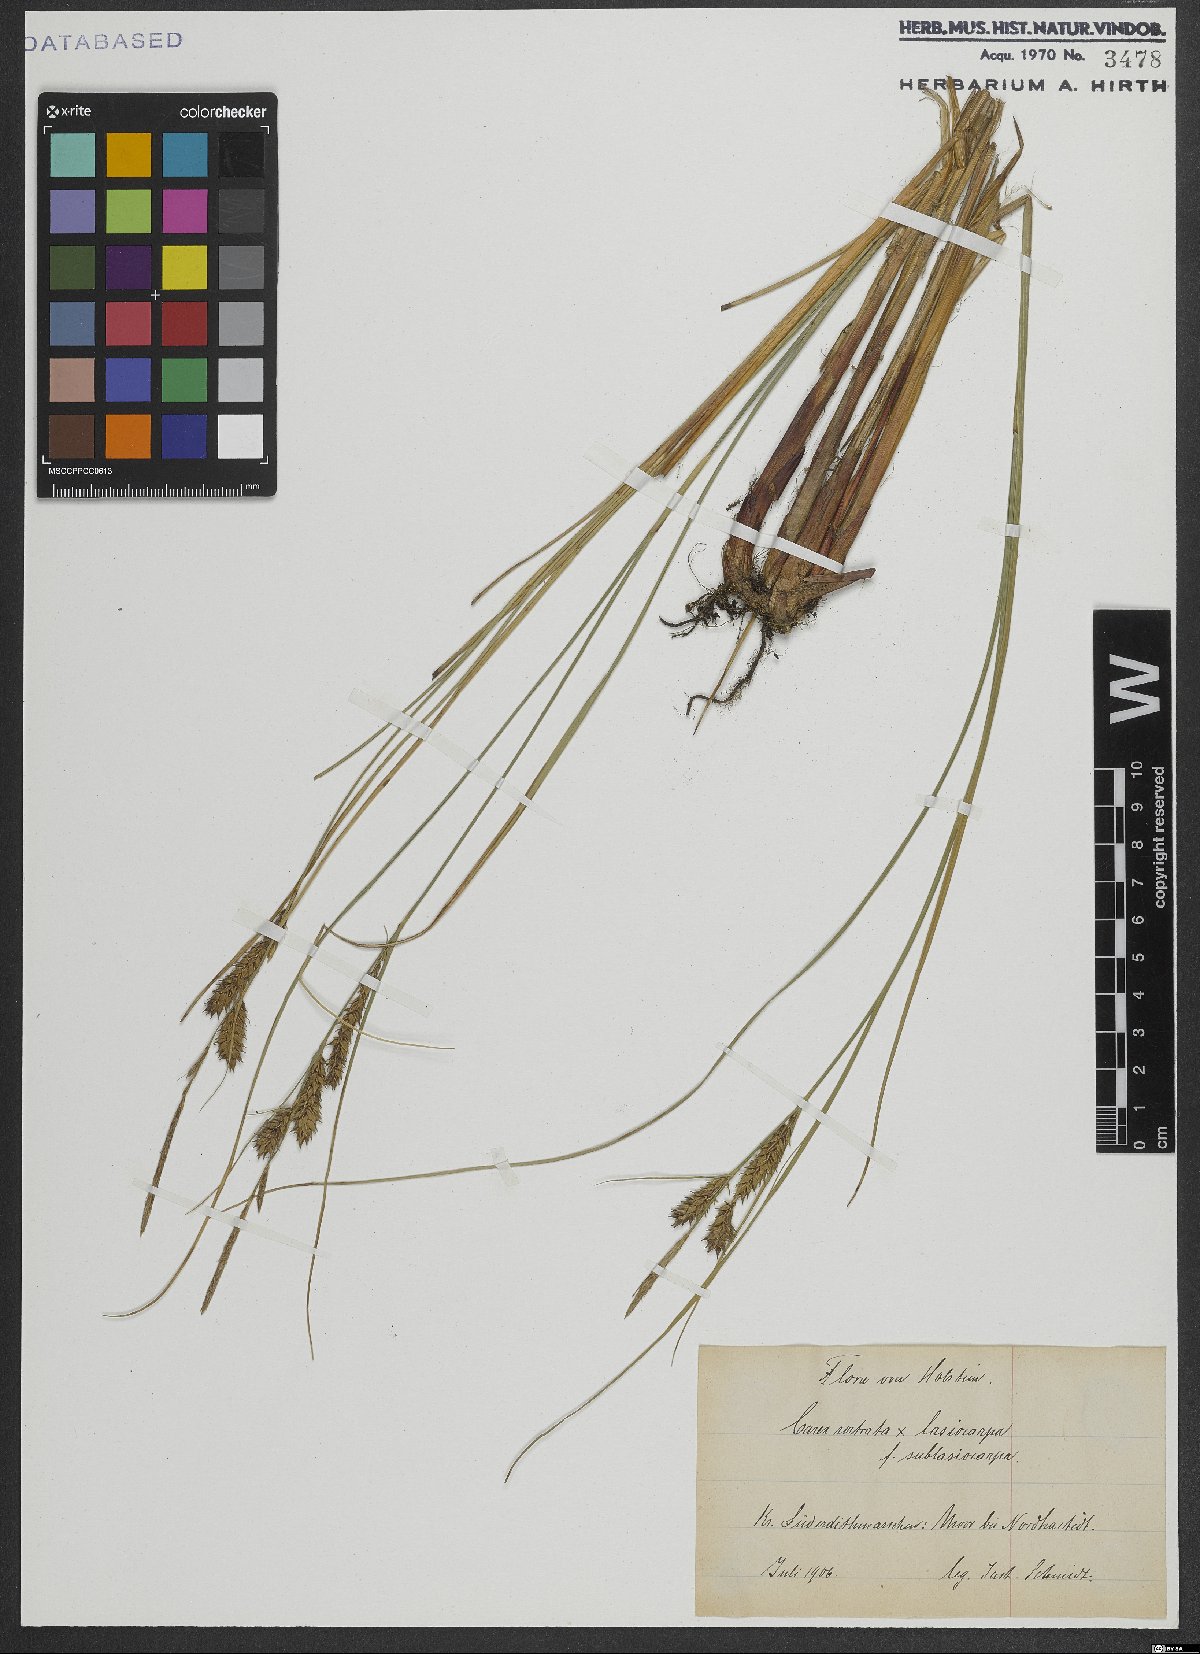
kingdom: Plantae
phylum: Tracheophyta
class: Liliopsida
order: Poales
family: Cyperaceae
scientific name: Cyperaceae
